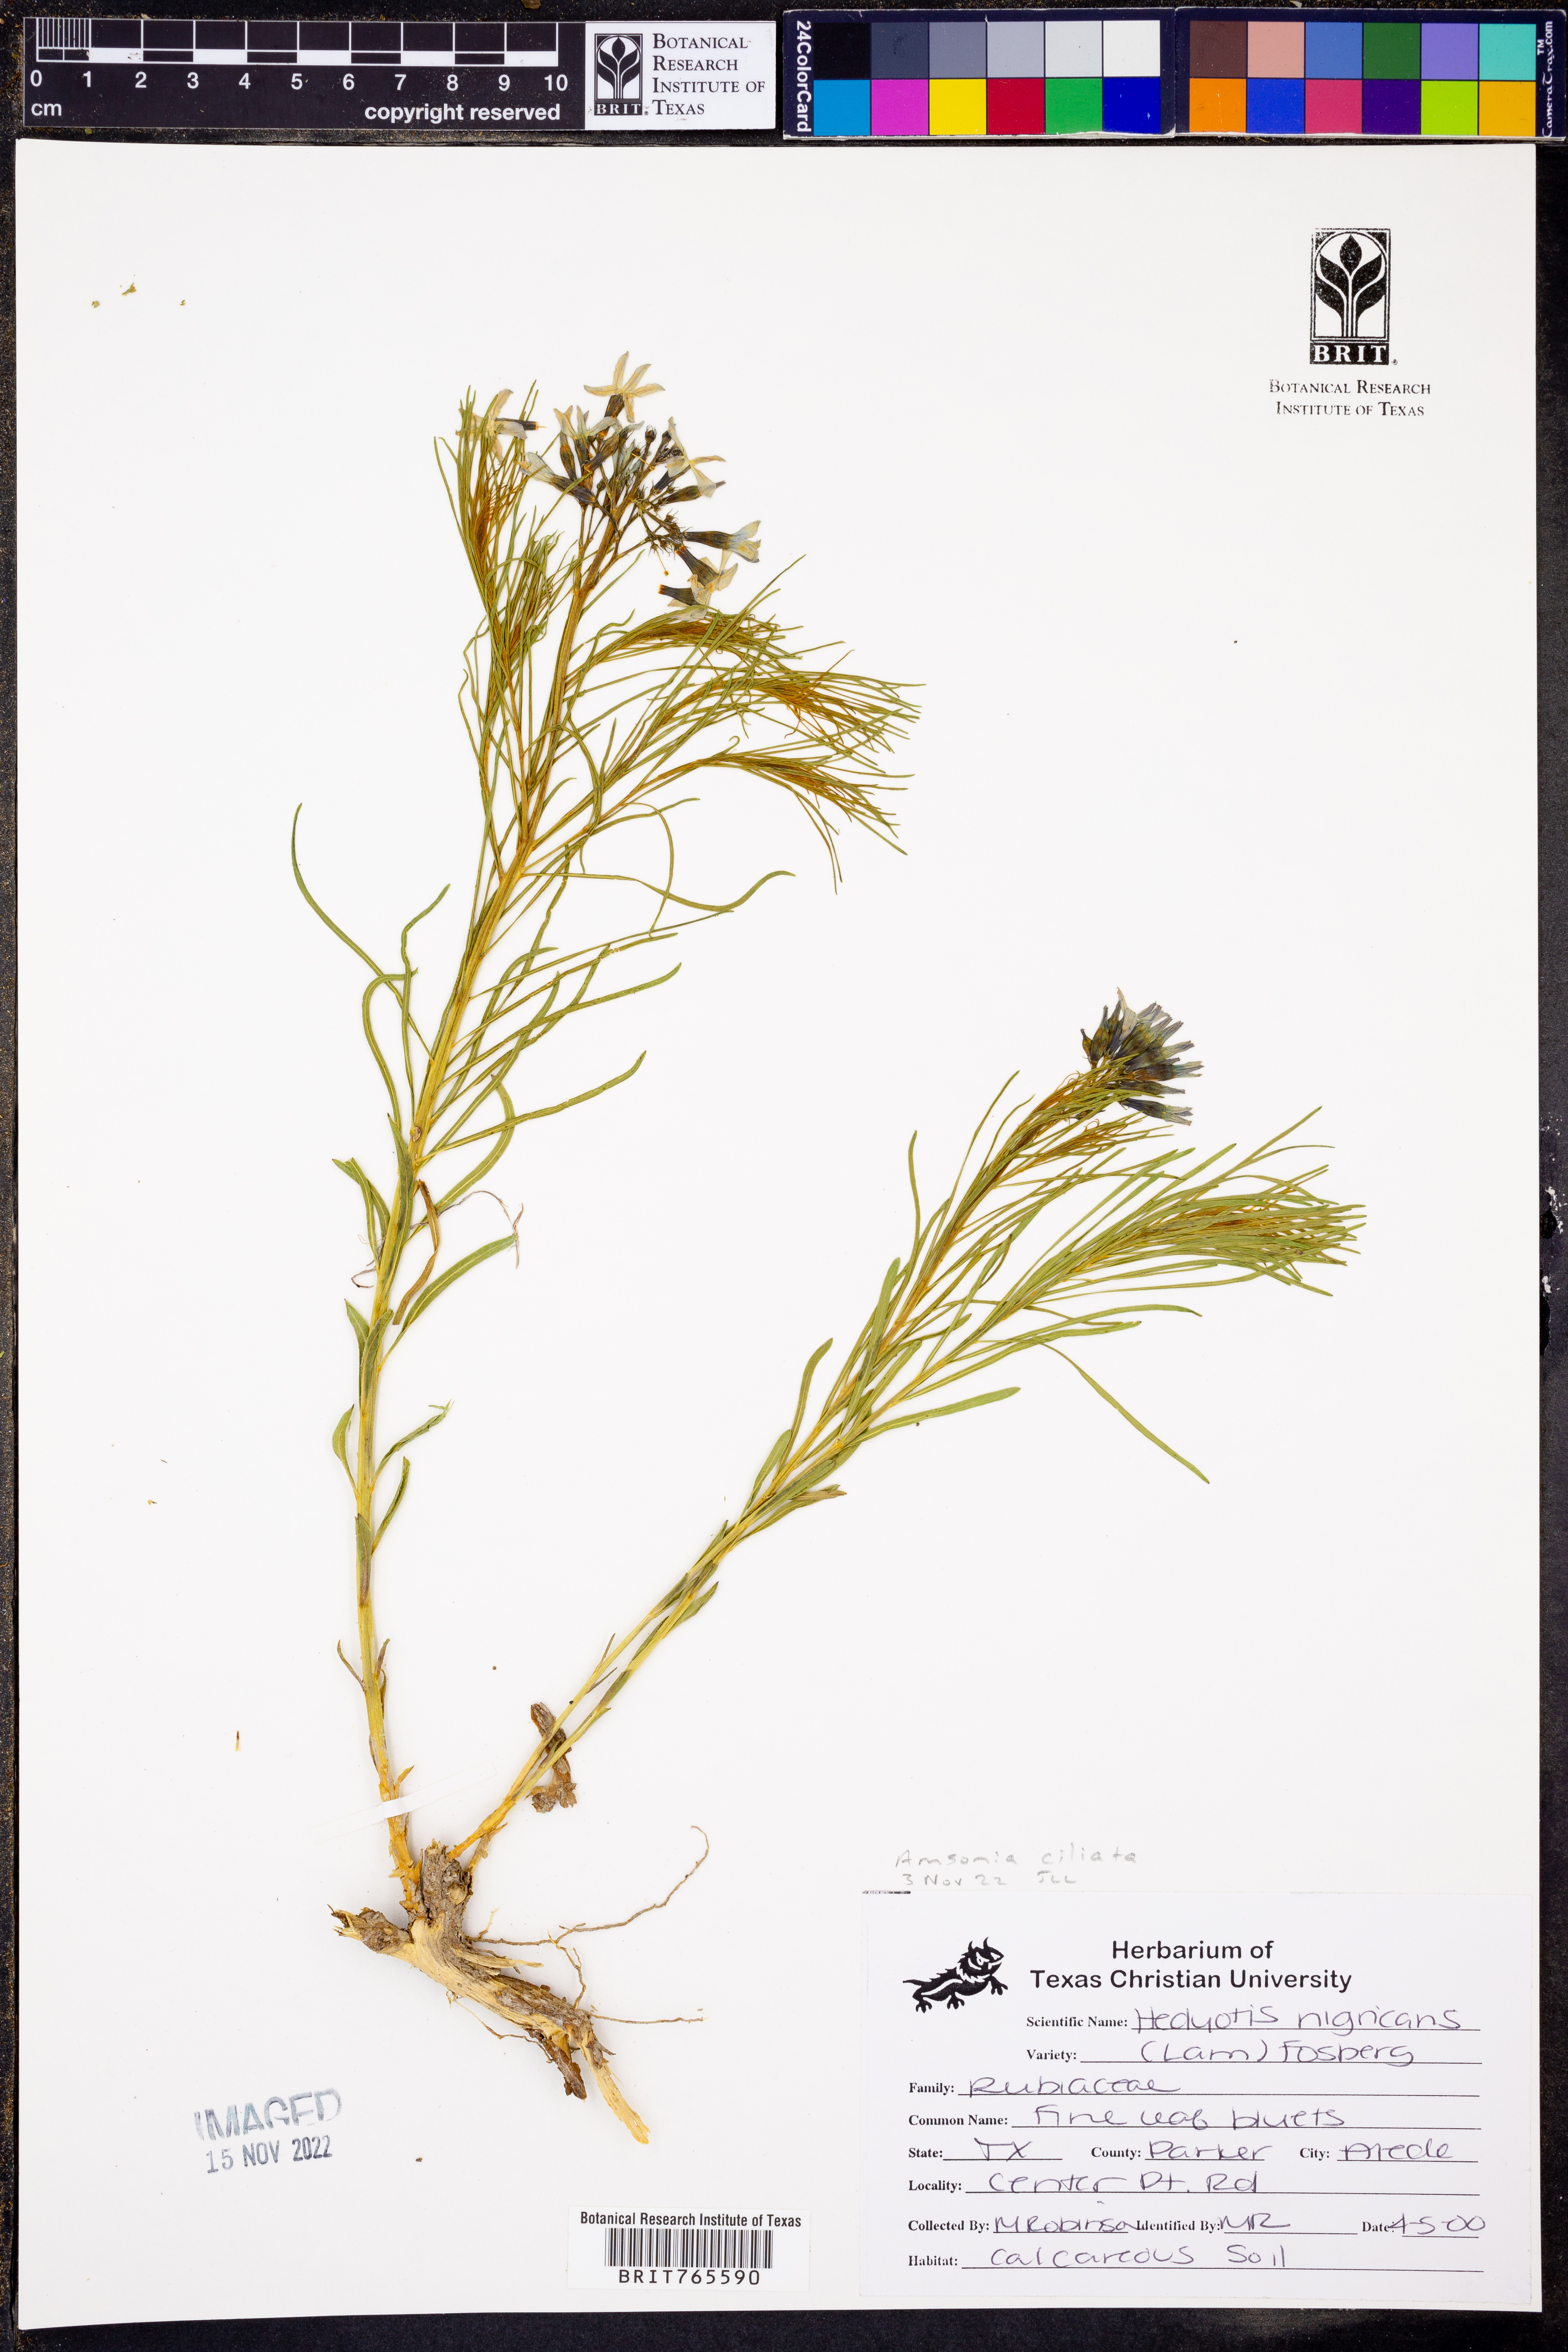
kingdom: Plantae
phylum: Tracheophyta
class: Magnoliopsida
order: Gentianales
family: Apocynaceae
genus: Amsonia
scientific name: Amsonia ciliata
